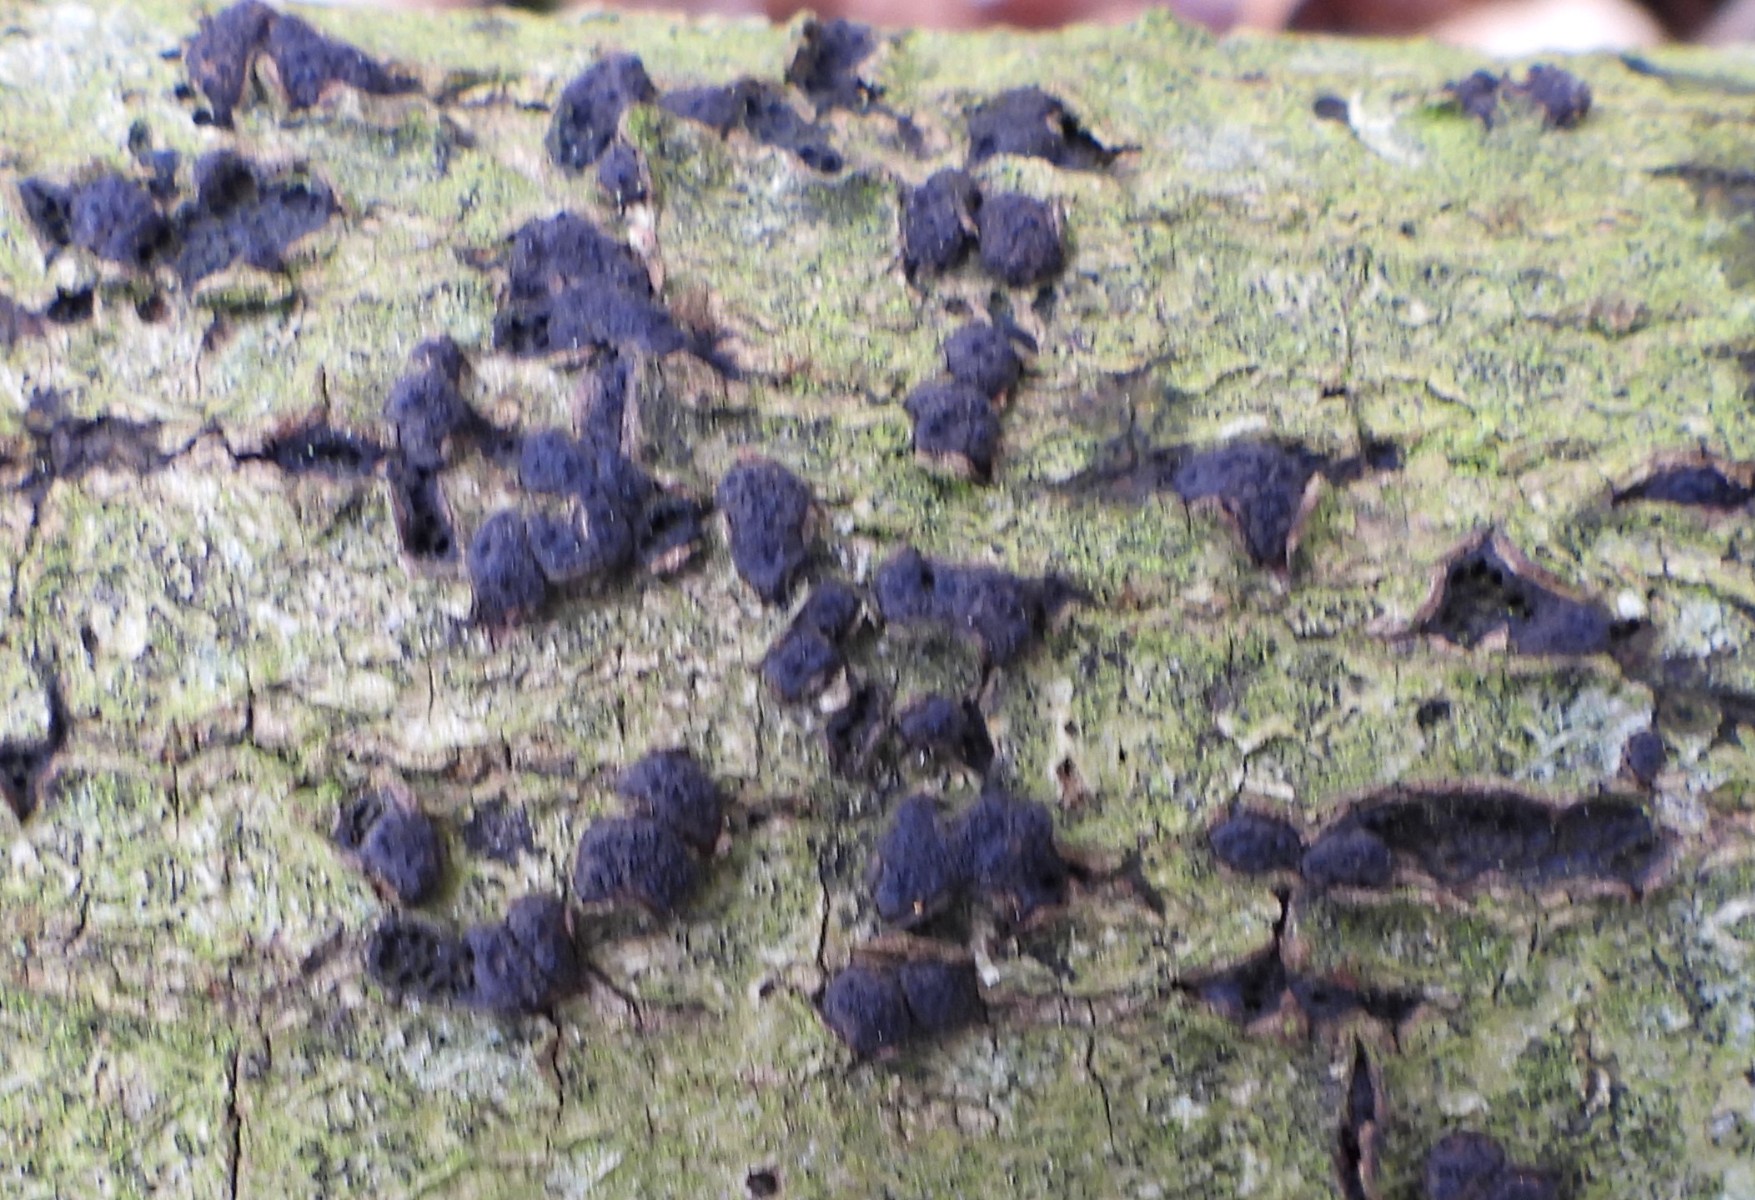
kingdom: Fungi
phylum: Ascomycota
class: Sordariomycetes
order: Xylariales
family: Diatrypaceae
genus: Diatrypella
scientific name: Diatrypella quercina
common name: ege-kulskorpe
